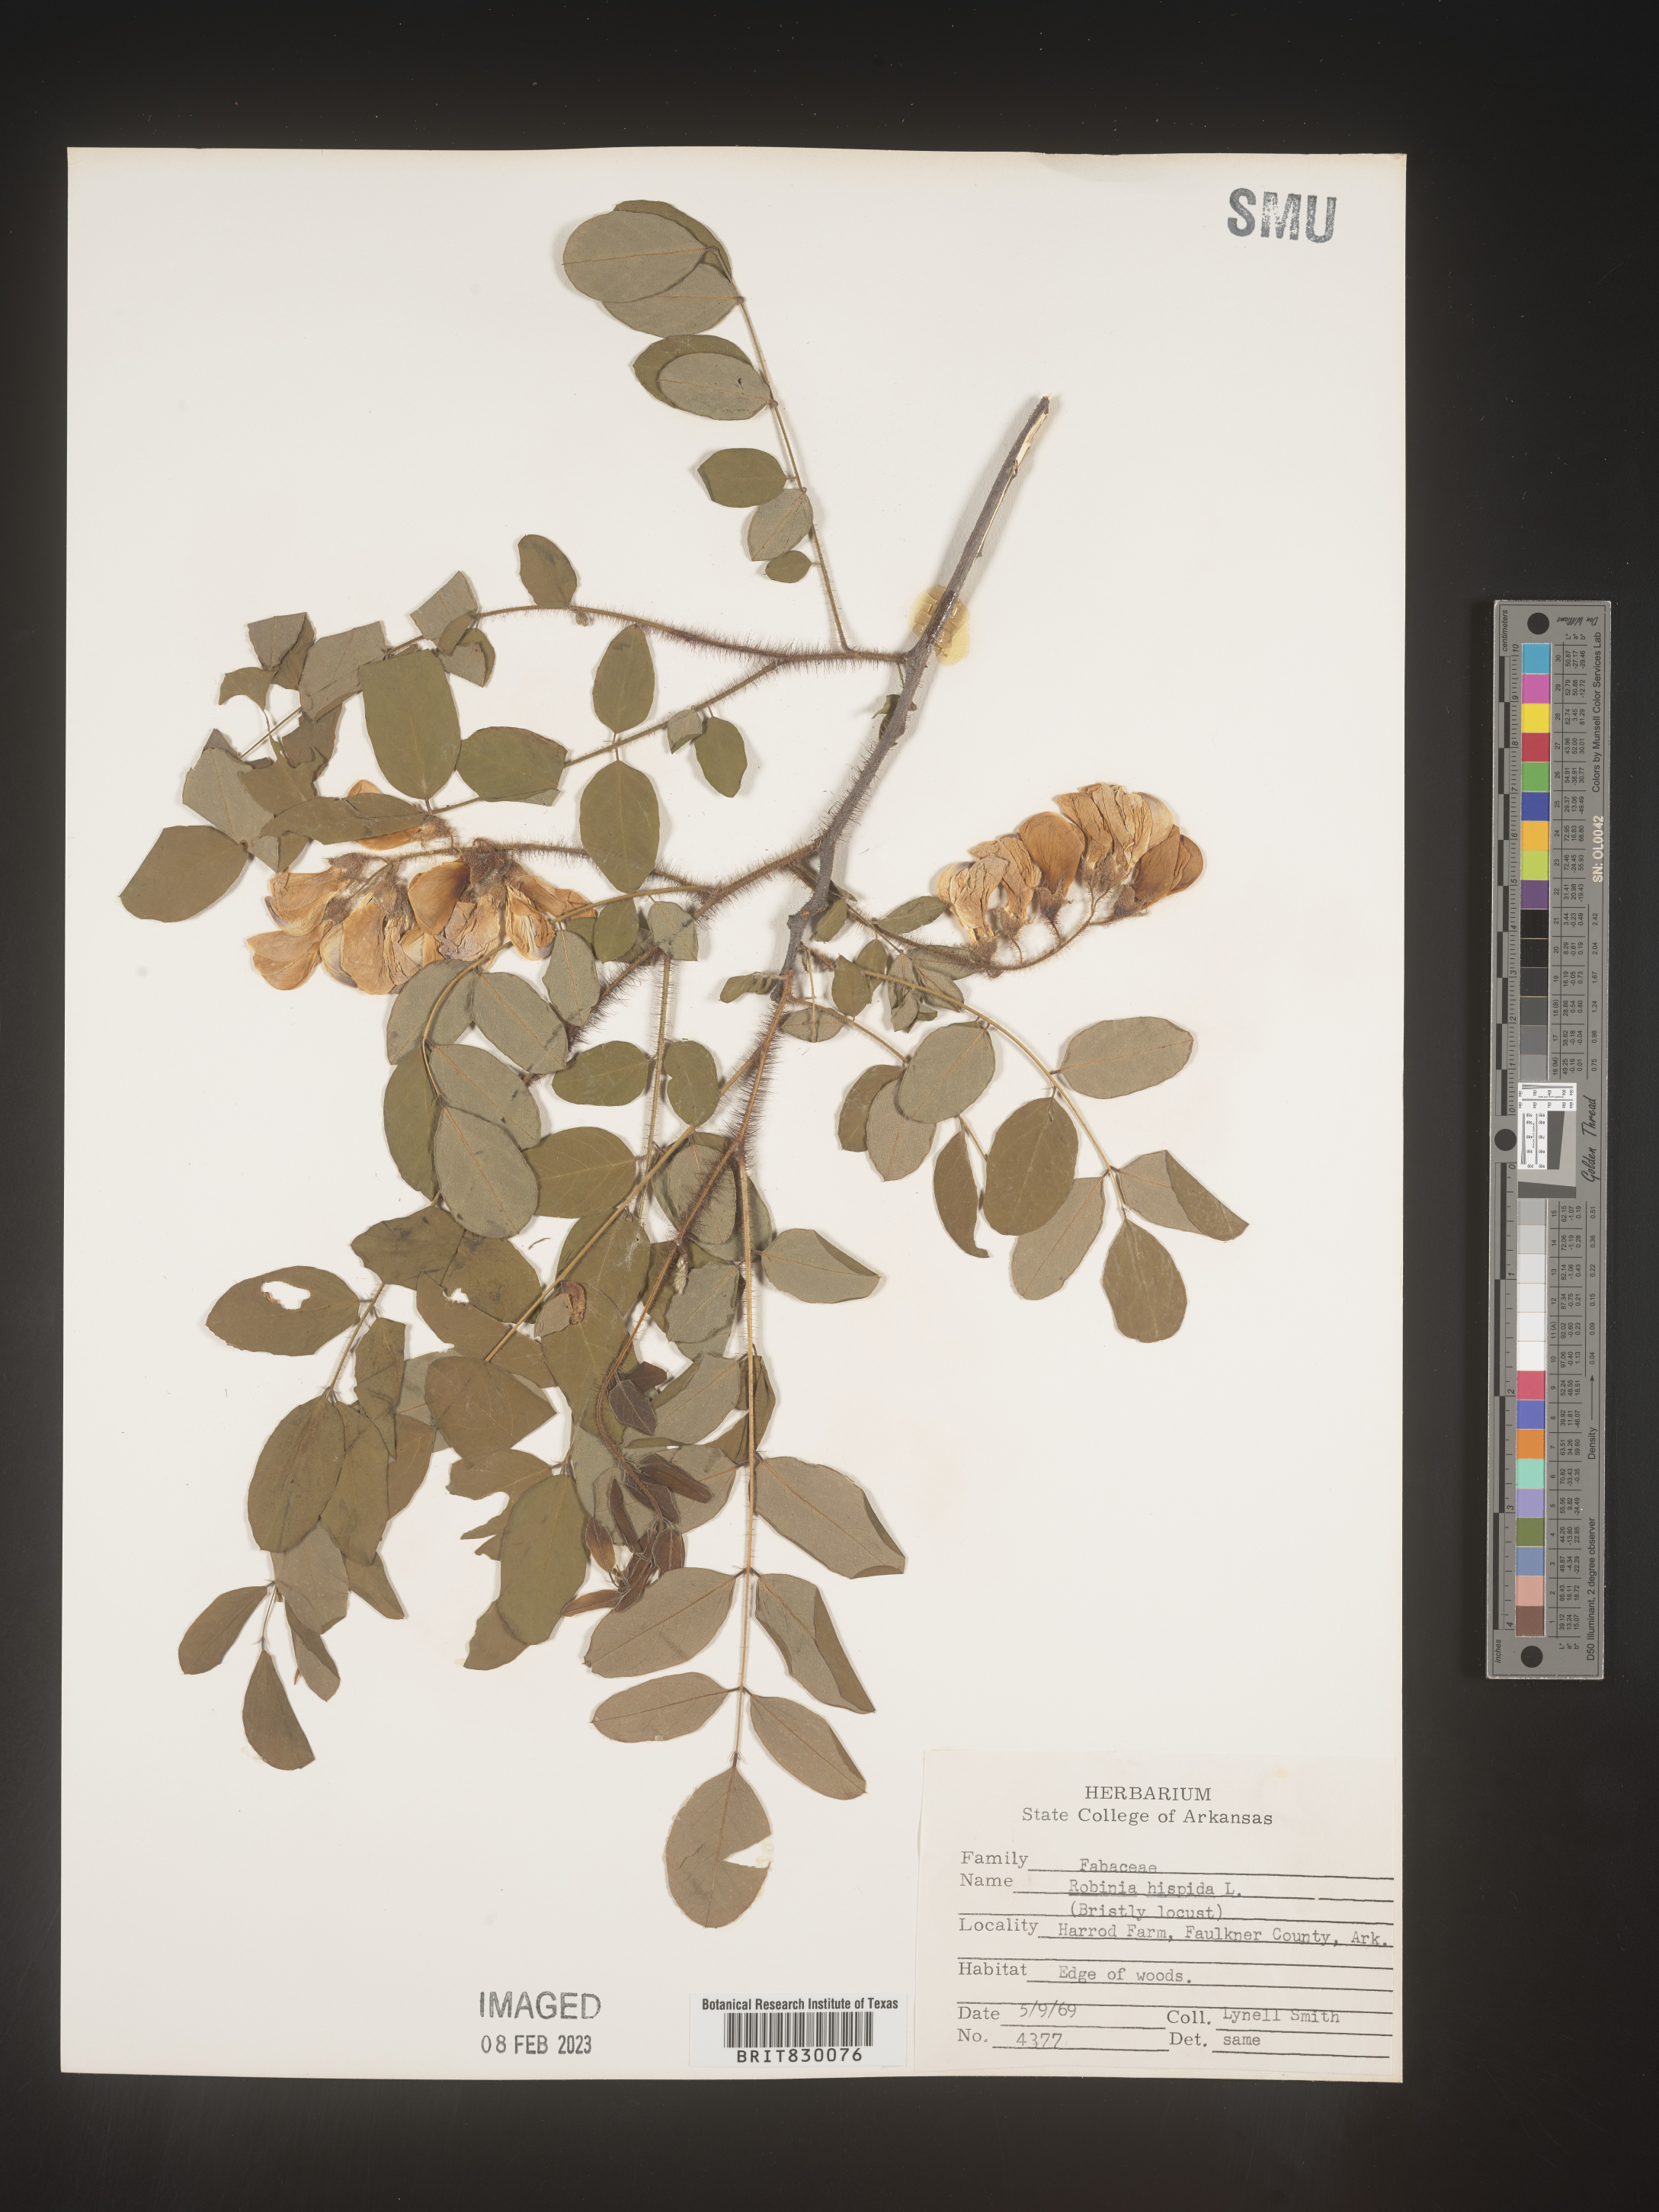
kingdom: Plantae
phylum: Tracheophyta
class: Magnoliopsida
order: Fabales
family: Fabaceae
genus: Robinia
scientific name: Robinia hispida
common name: Bristly locust
